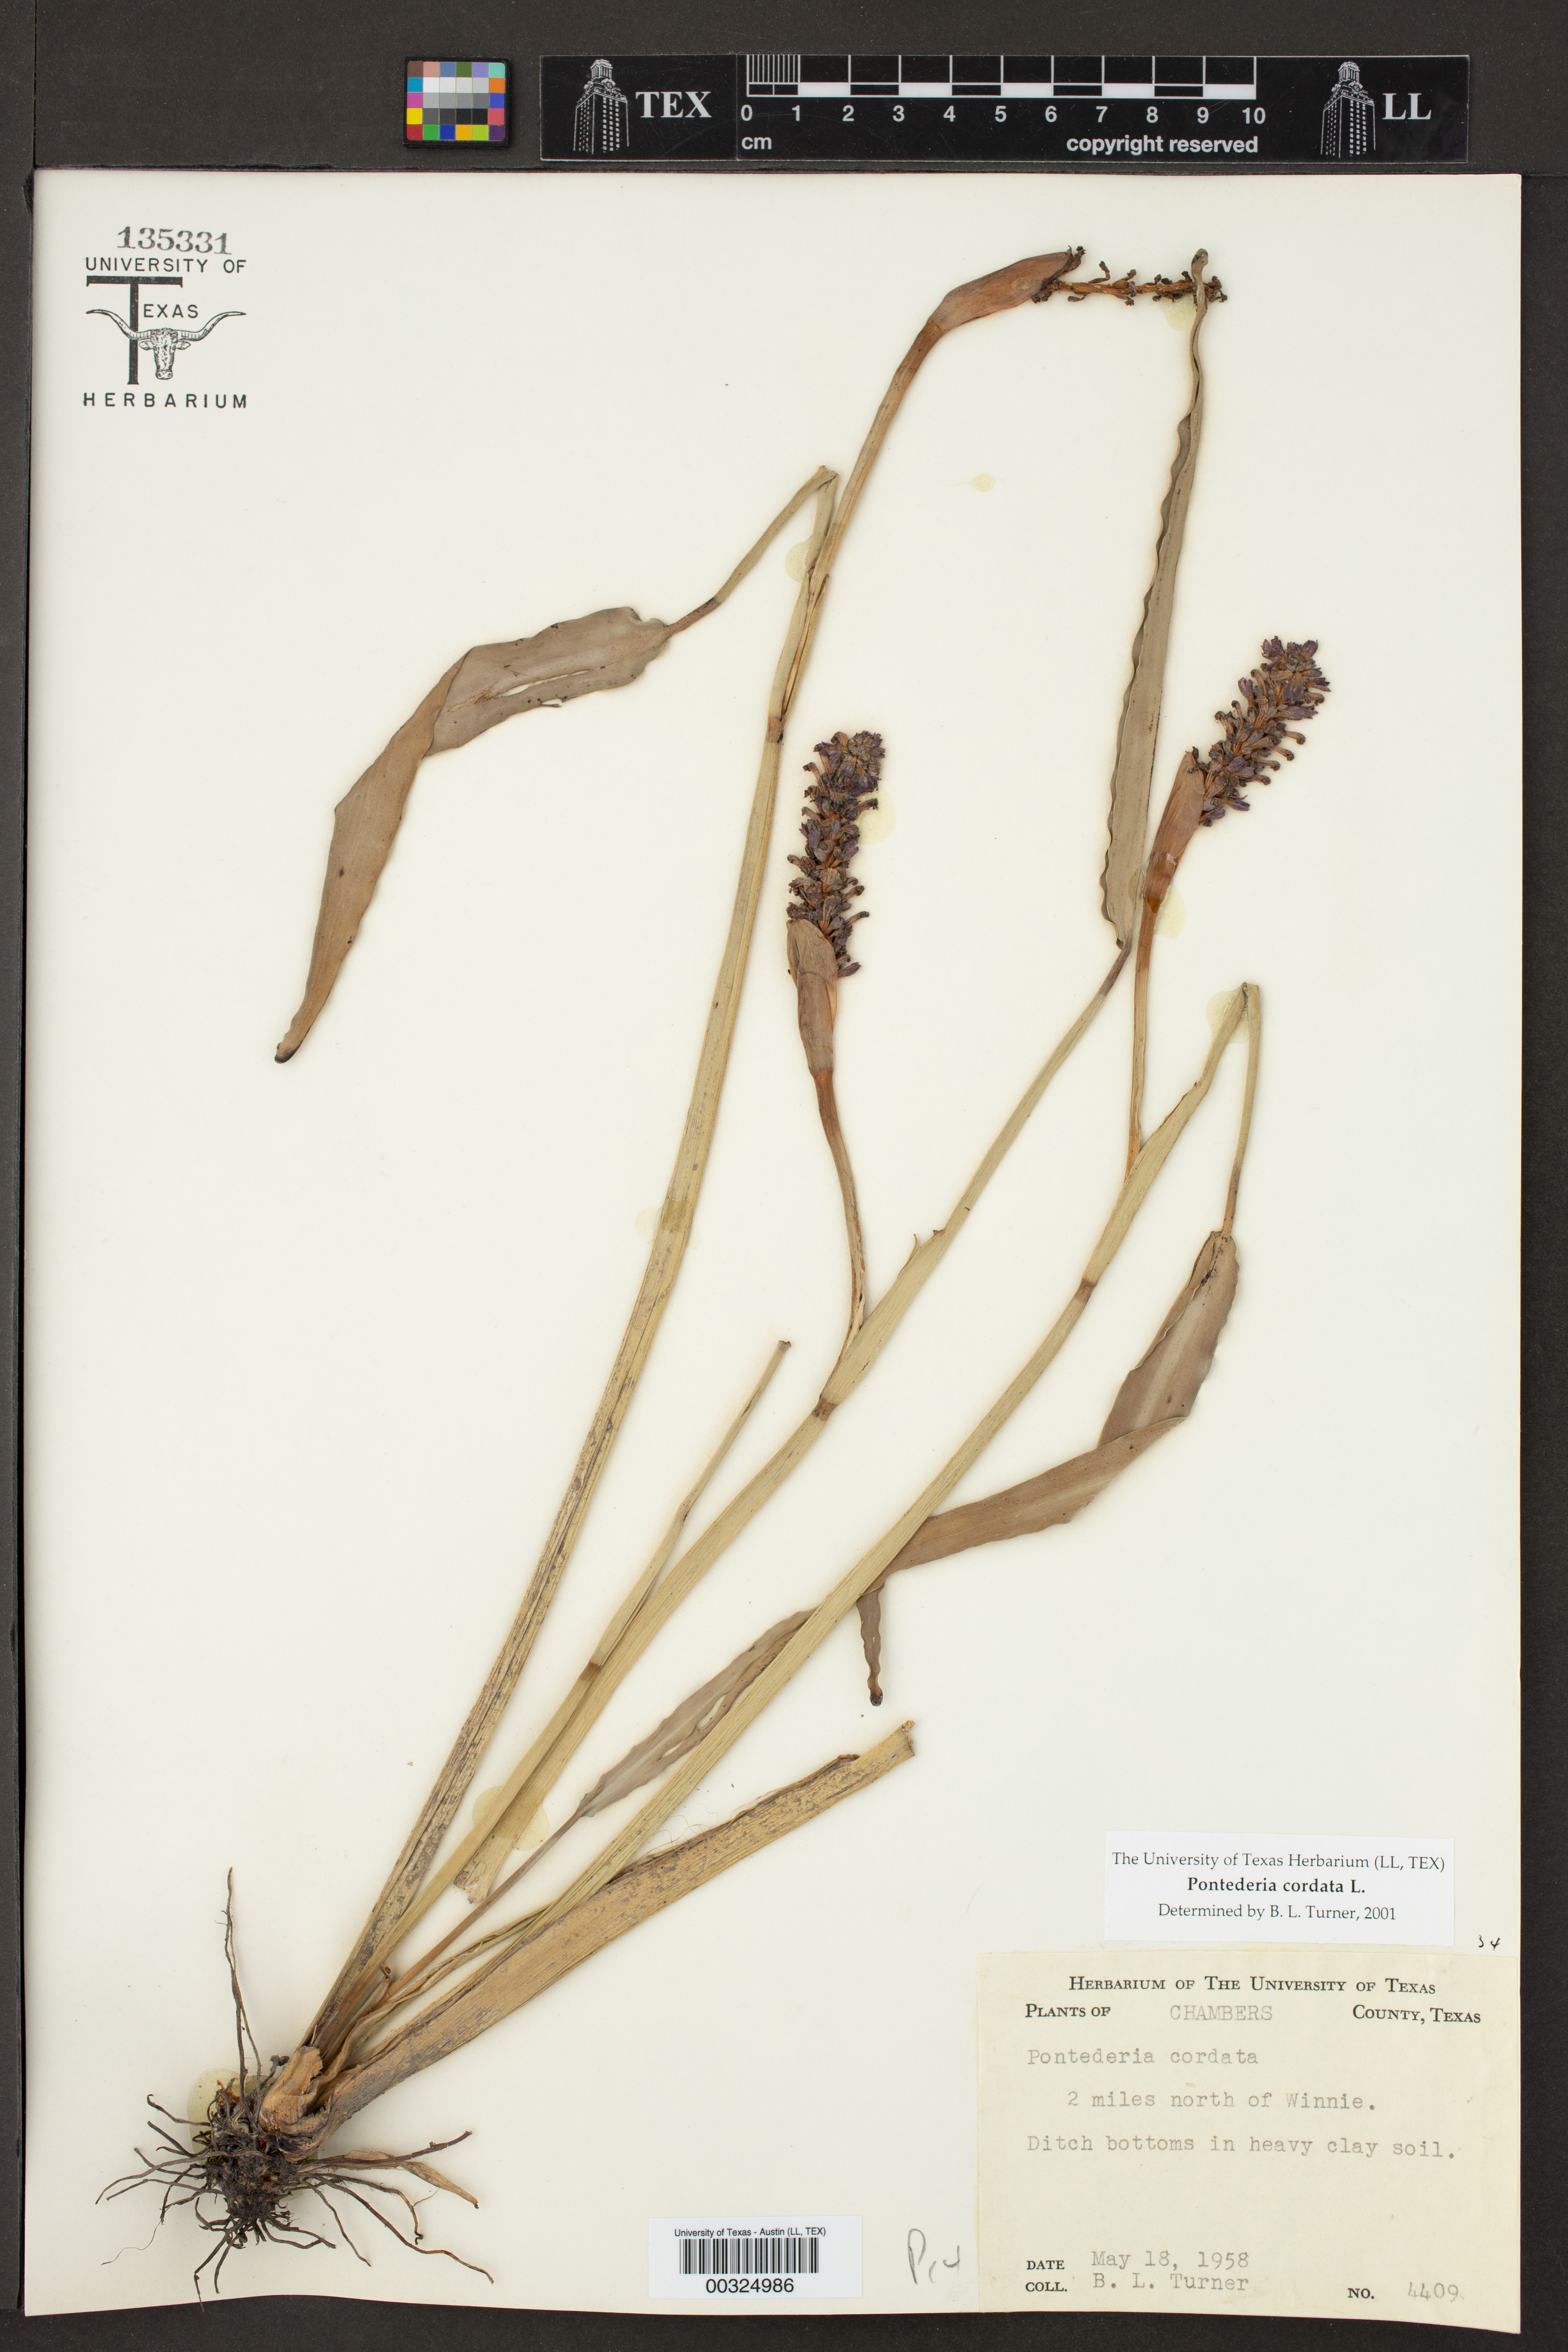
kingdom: Plantae
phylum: Tracheophyta
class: Liliopsida
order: Commelinales
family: Pontederiaceae
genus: Pontederia
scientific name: Pontederia cordata
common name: Pickerelweed
